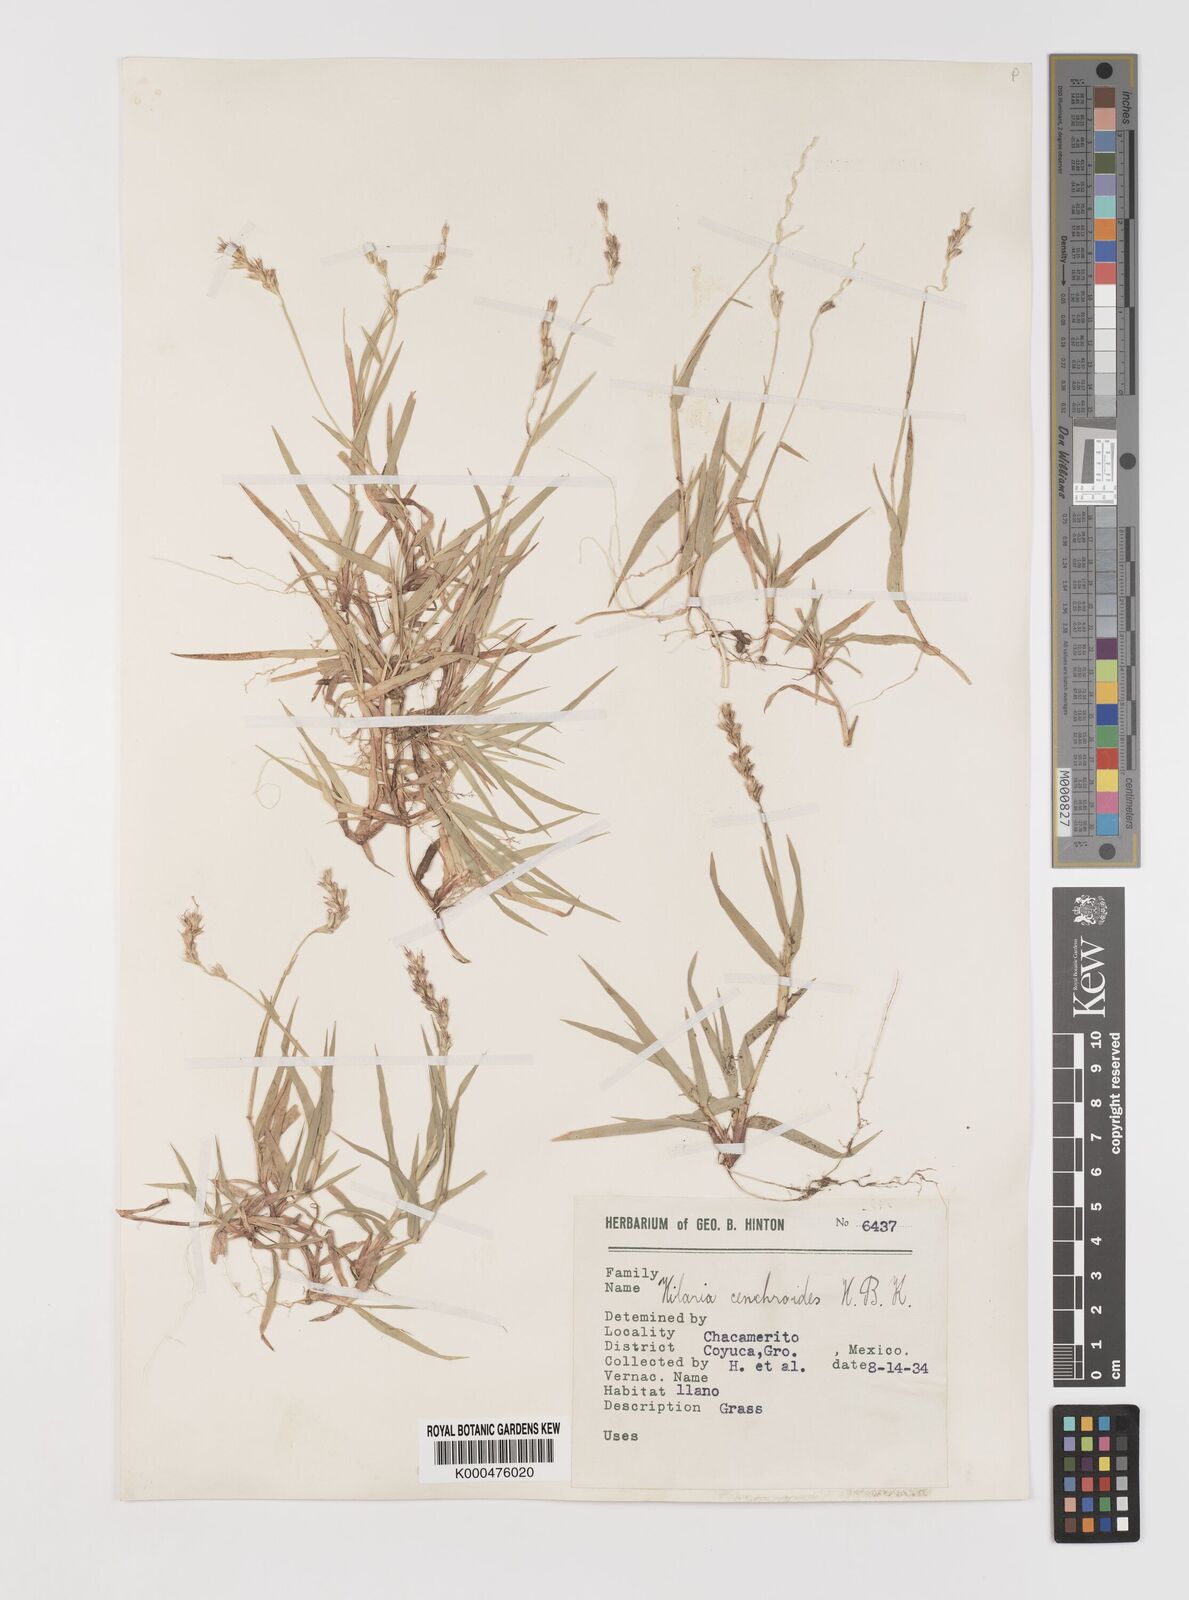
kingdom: Plantae
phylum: Tracheophyta
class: Liliopsida
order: Poales
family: Poaceae
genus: Hilaria
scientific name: Hilaria swallenii
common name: Swallen's curly-mesquite
